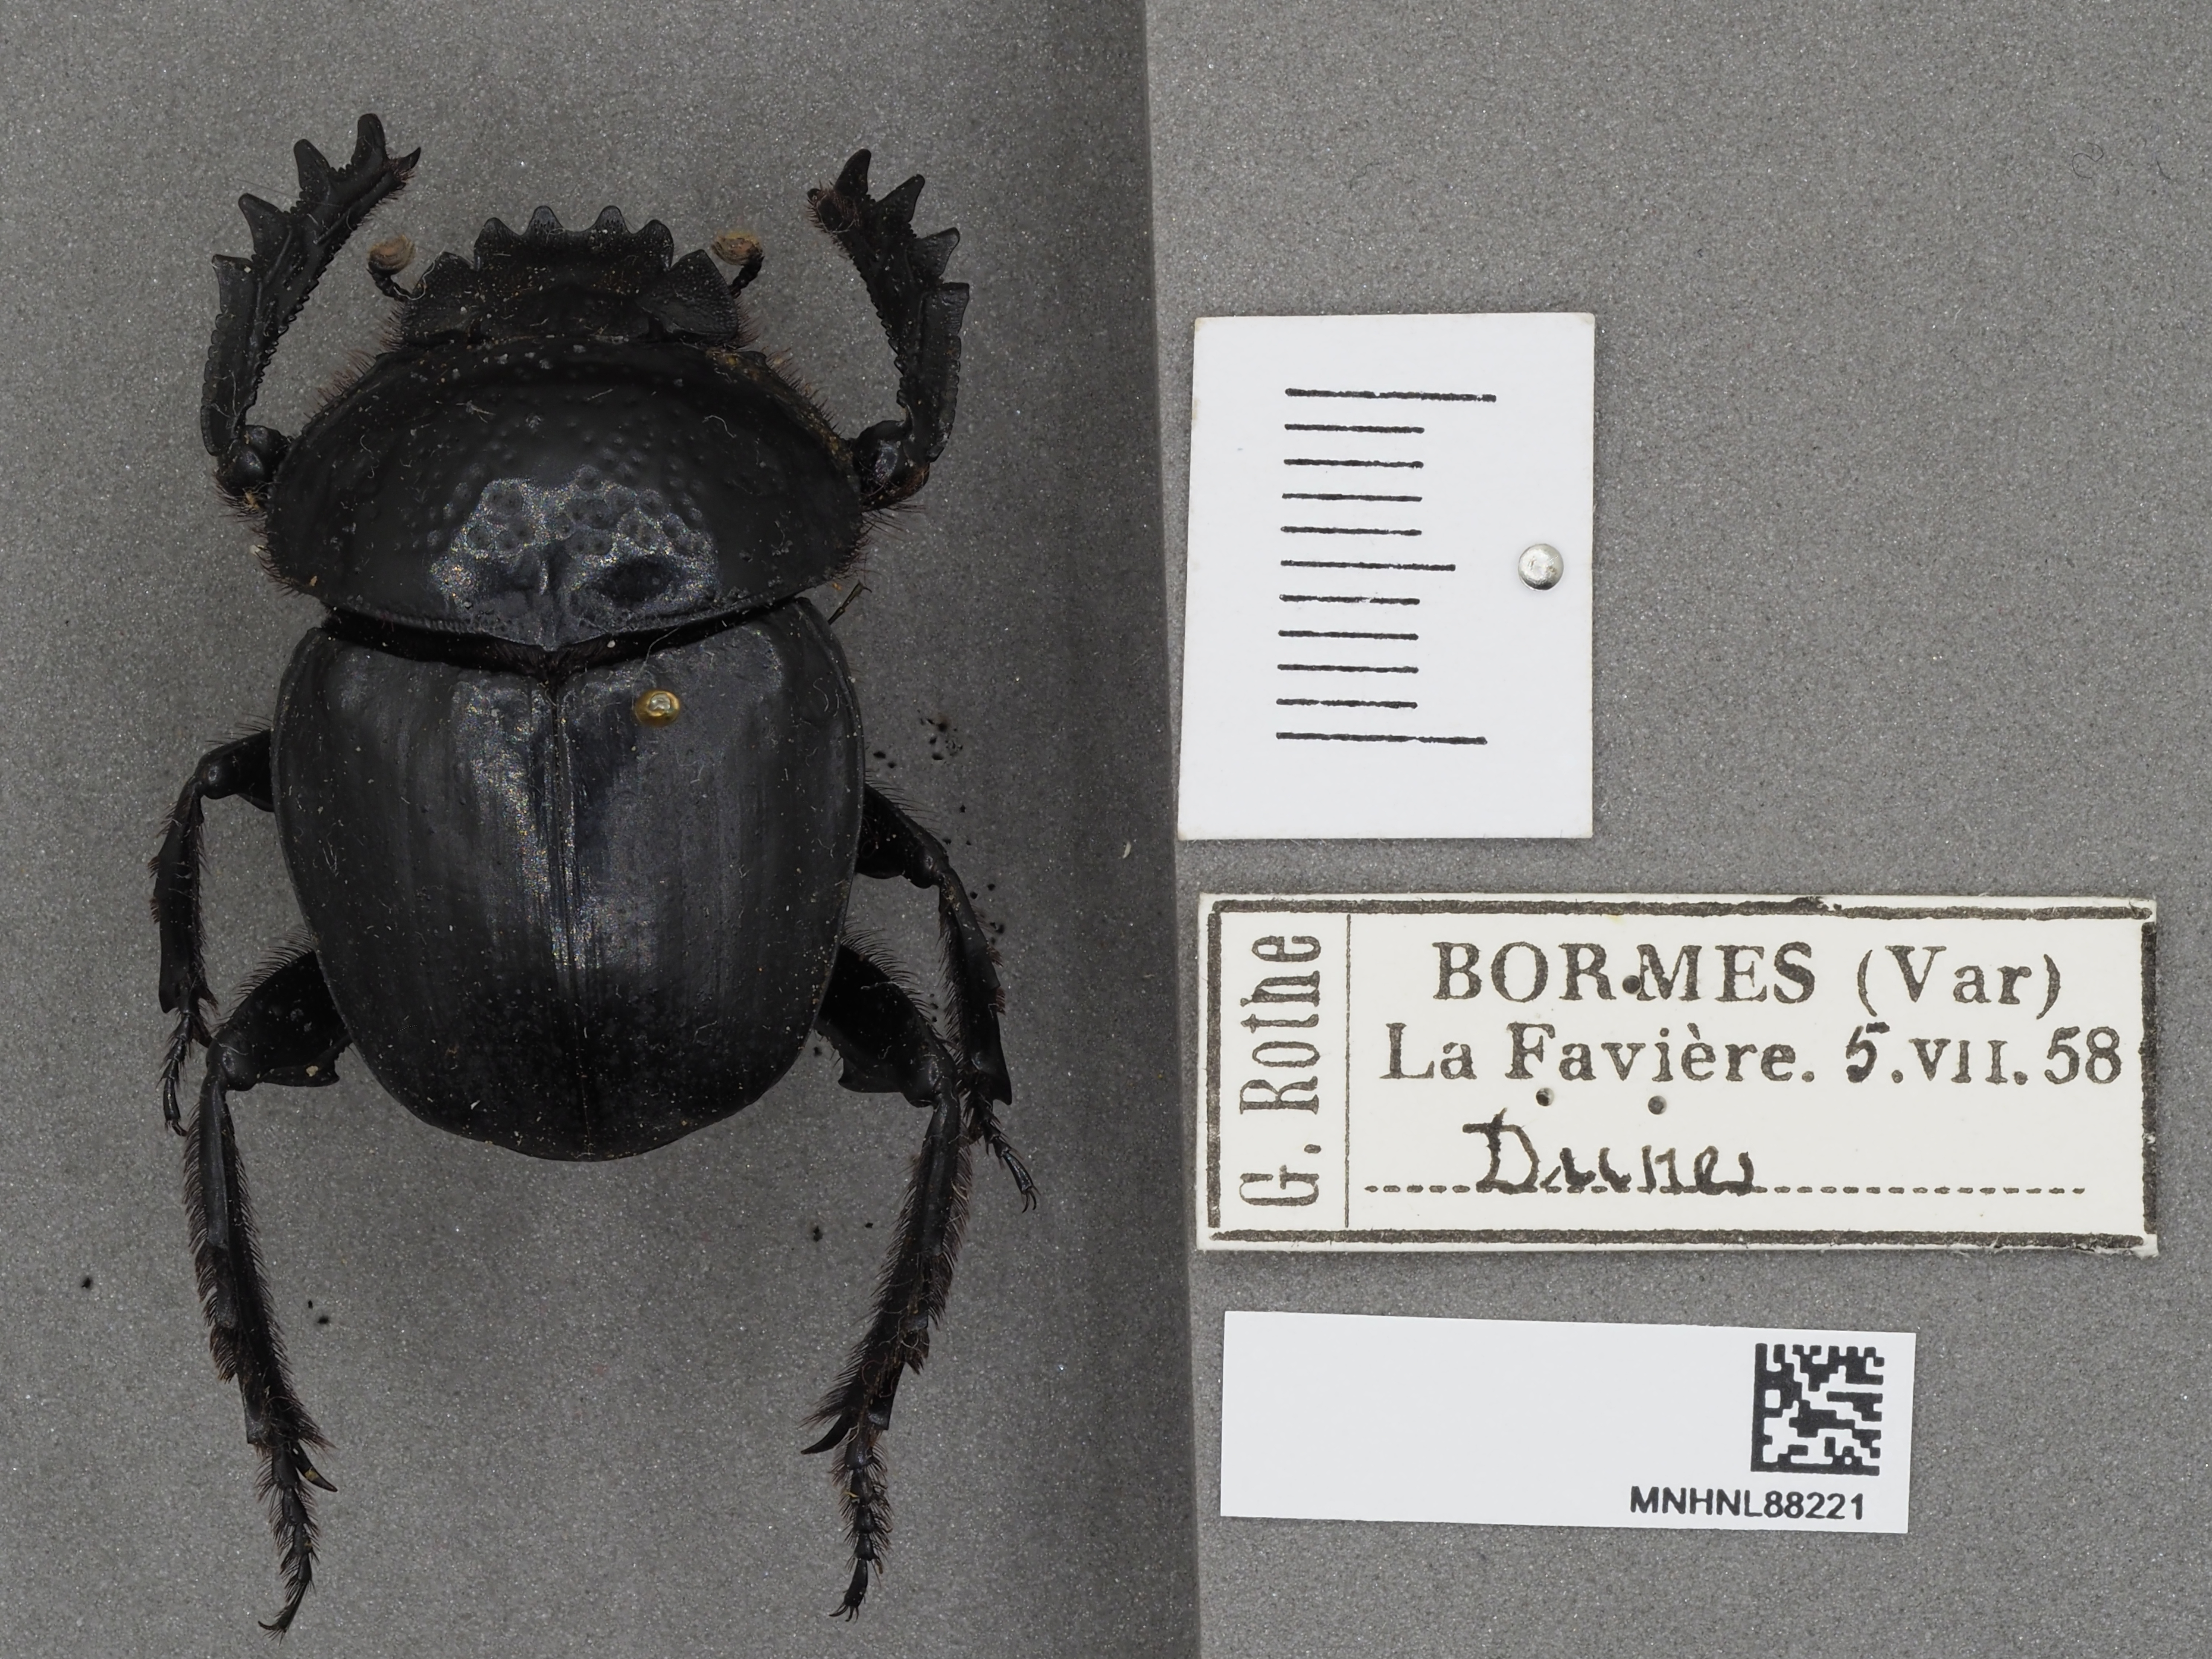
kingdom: Animalia
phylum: Arthropoda
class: Insecta
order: Coleoptera
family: Scarabaeidae
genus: Ateuchetus
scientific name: Ateuchetus semipunctatus
